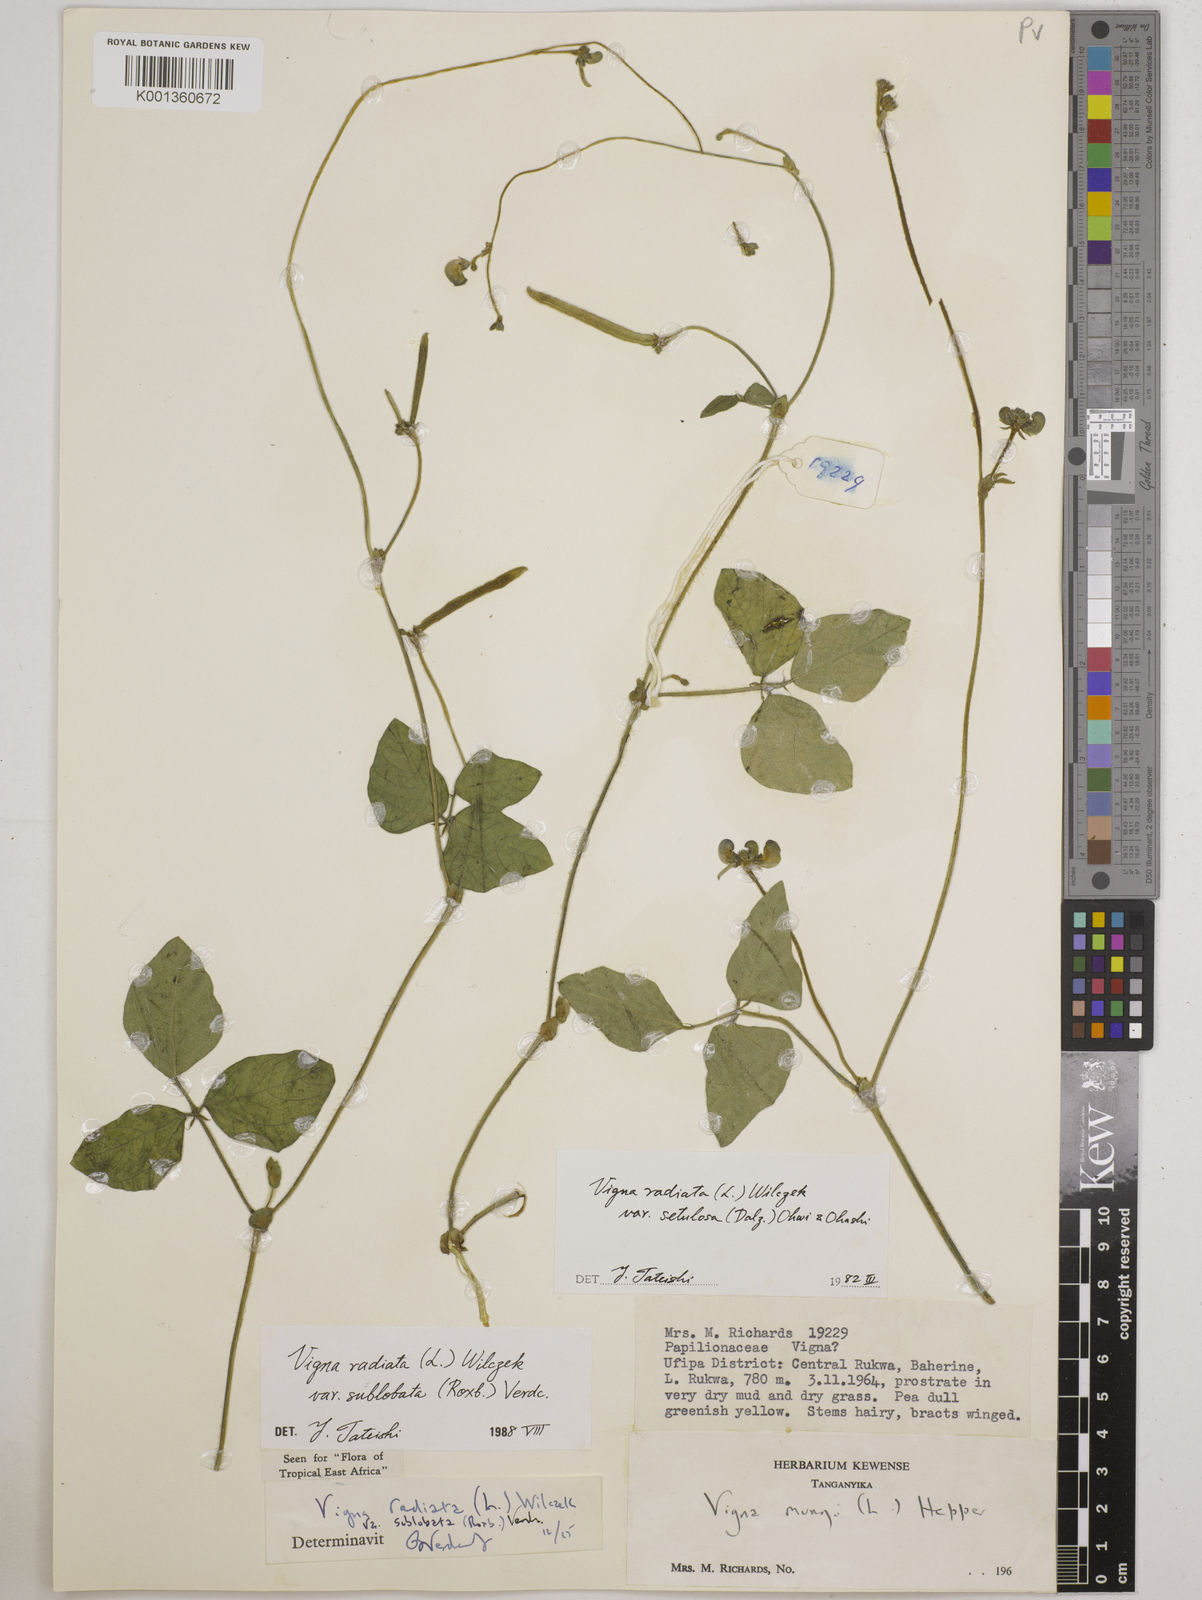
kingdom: Plantae
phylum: Tracheophyta
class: Magnoliopsida
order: Fabales
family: Fabaceae
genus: Vigna
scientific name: Vigna radiata
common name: Mung-bean
